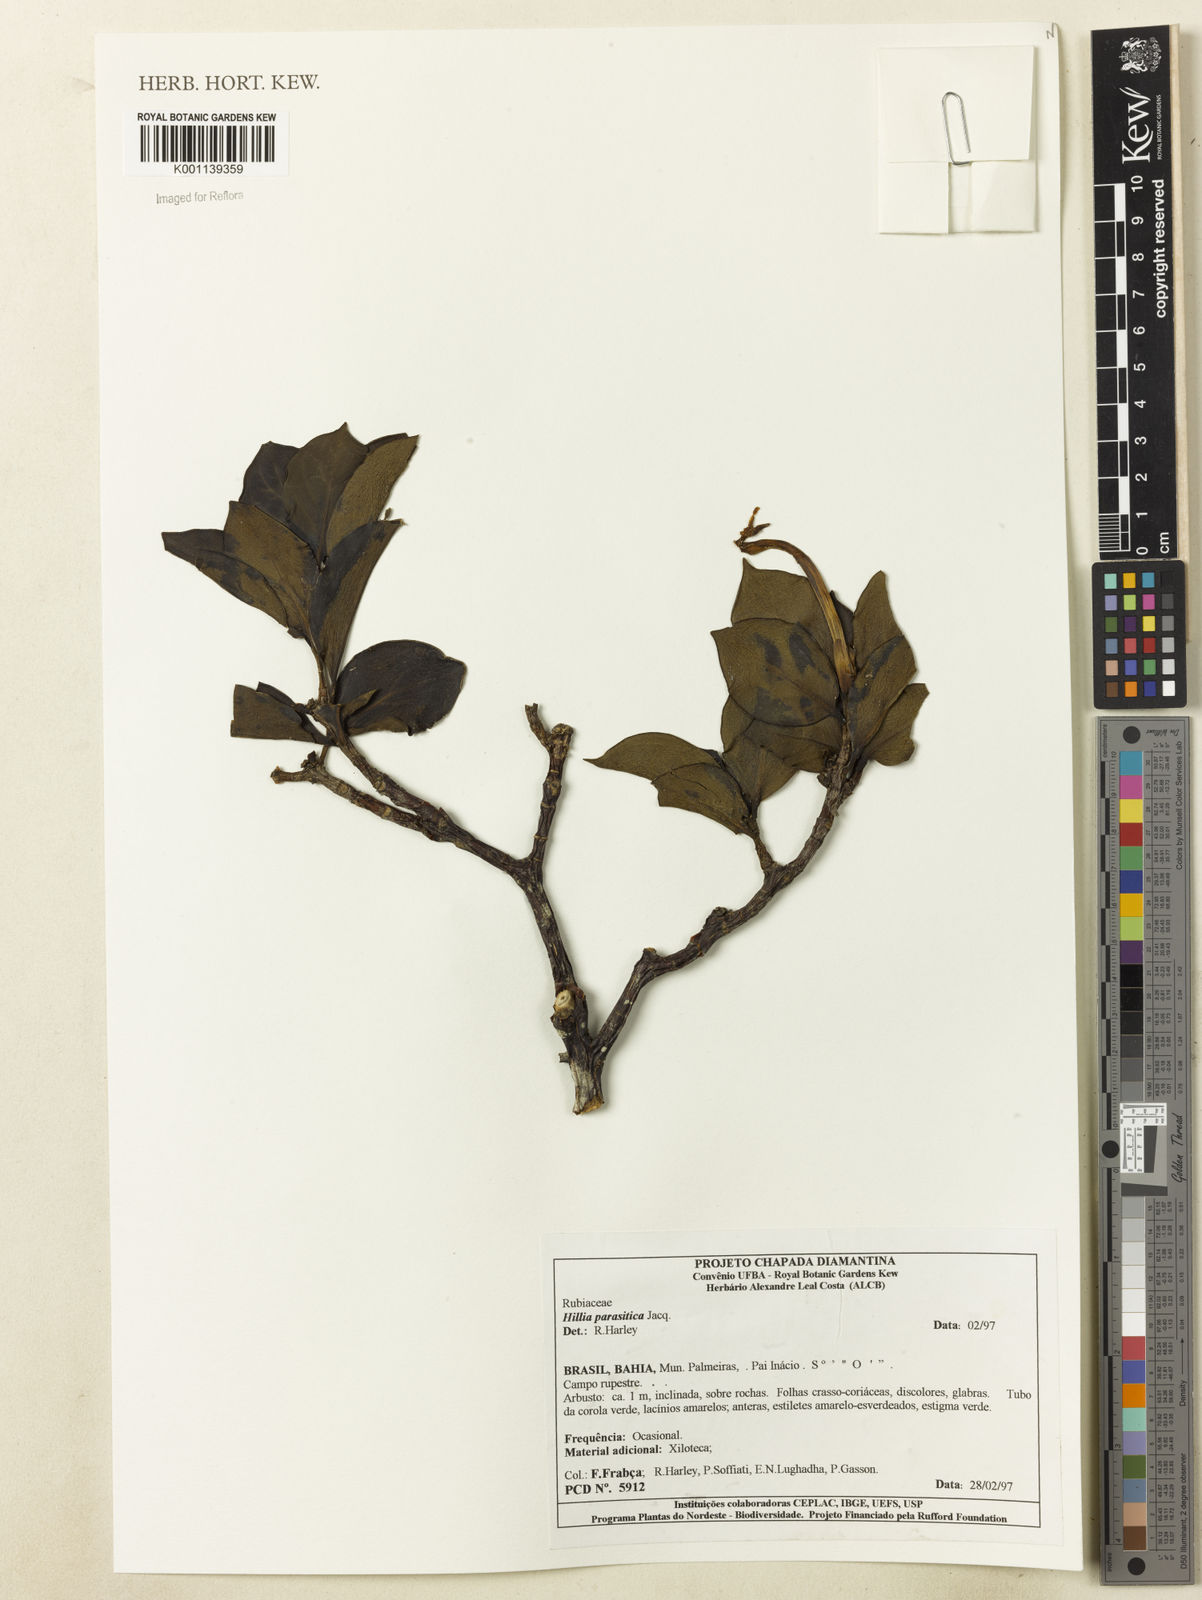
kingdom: Plantae
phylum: Tracheophyta
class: Magnoliopsida
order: Gentianales
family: Rubiaceae
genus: Hillia
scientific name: Hillia parasitica
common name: Morning star
